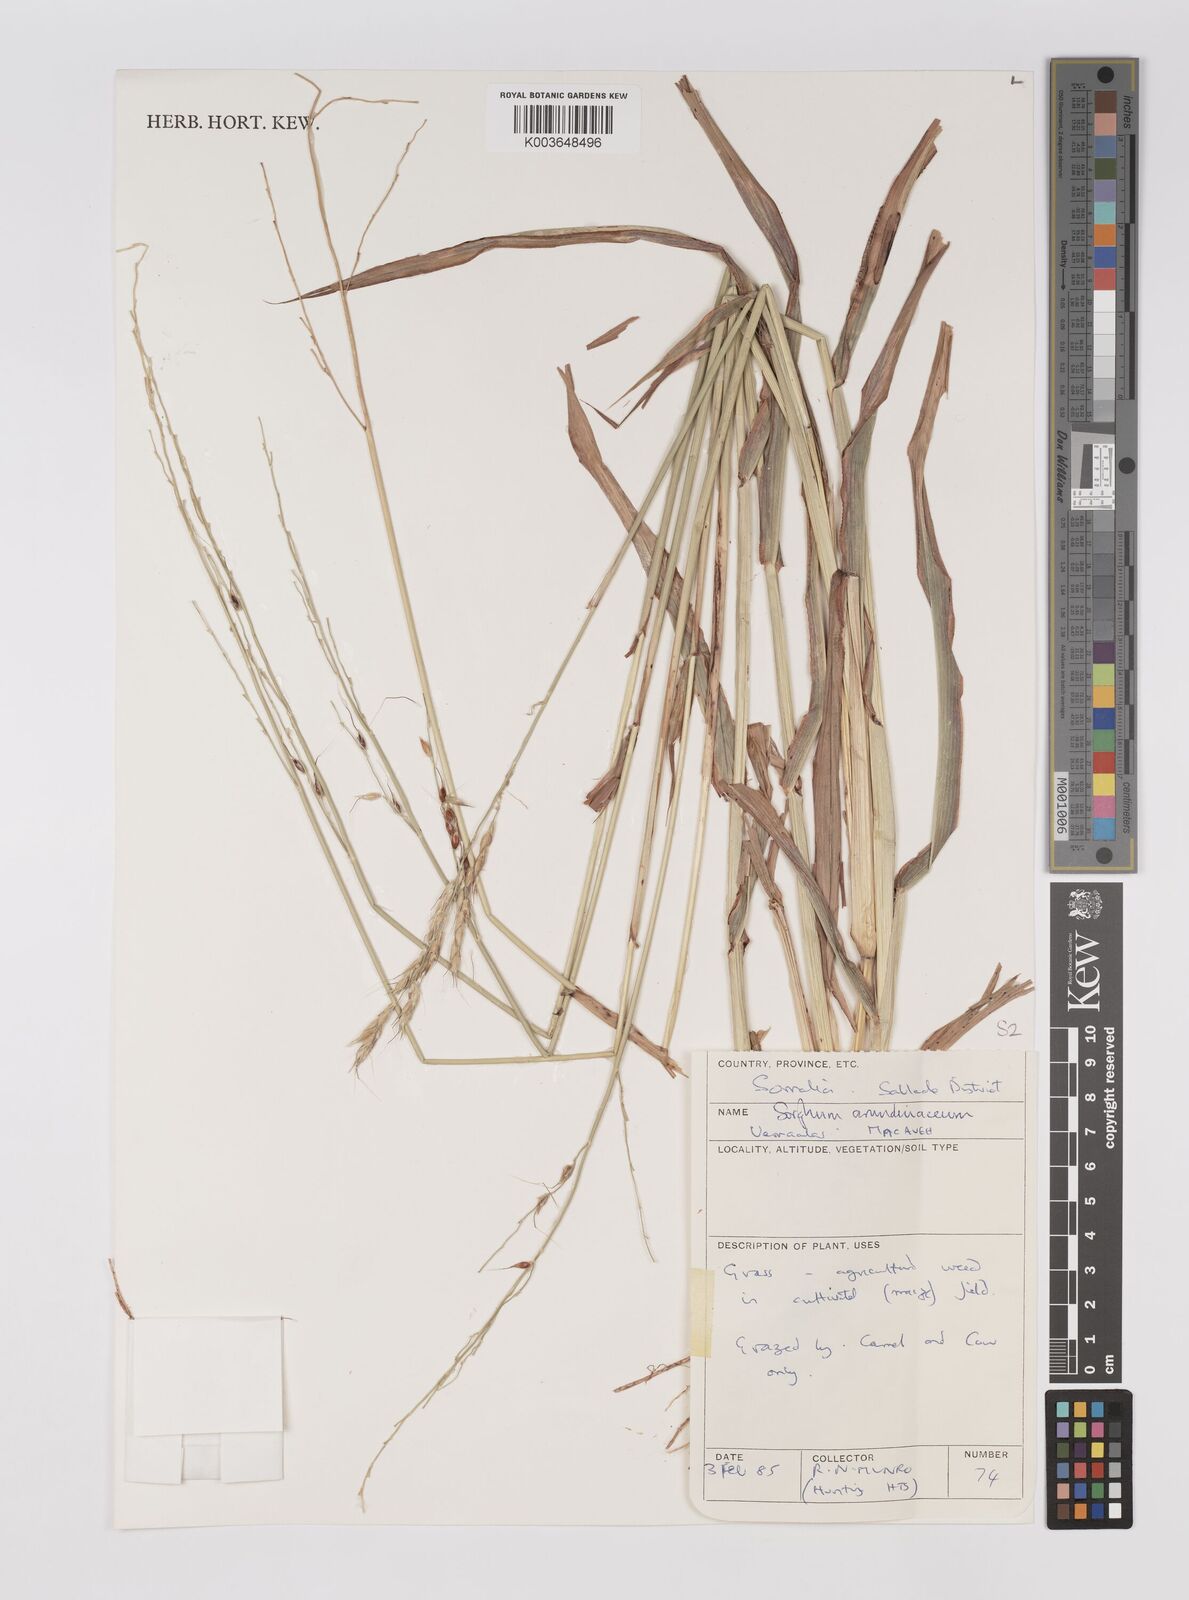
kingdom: Plantae
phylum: Tracheophyta
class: Liliopsida
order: Poales
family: Poaceae
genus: Sorghum
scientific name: Sorghum arundinaceum
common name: Sorghum
